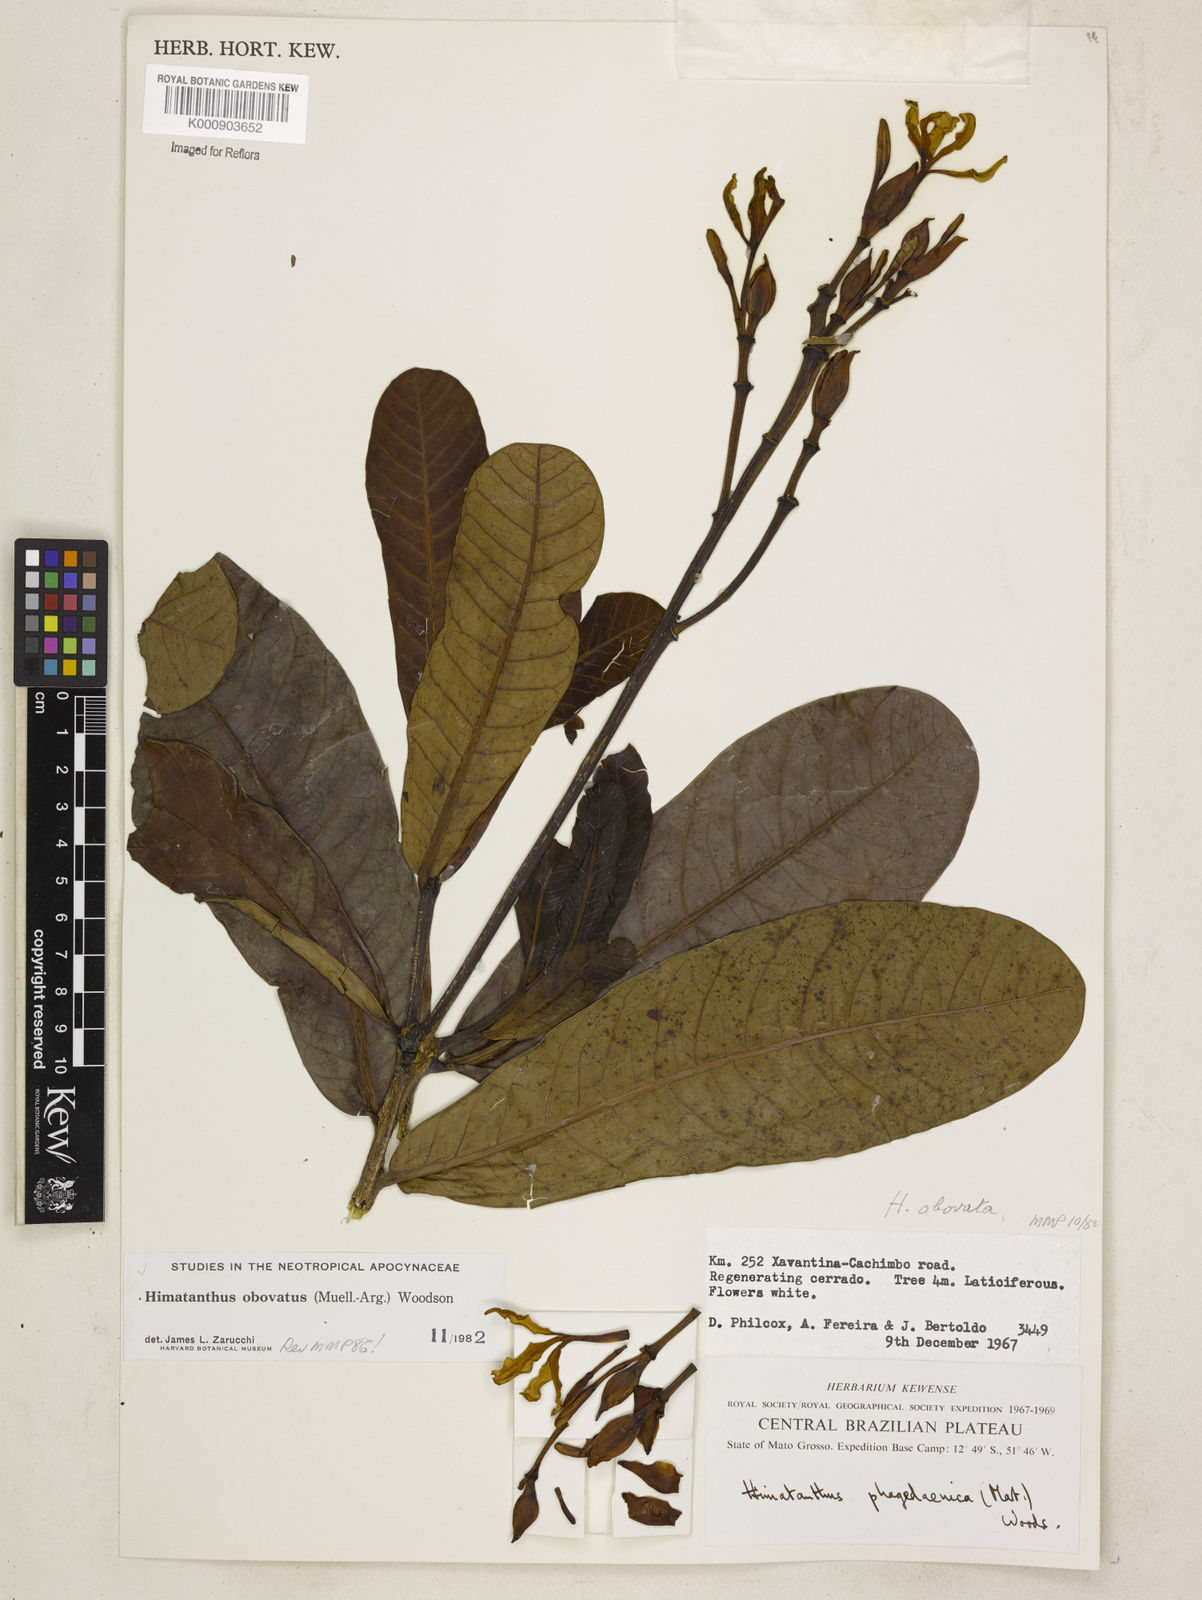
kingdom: Plantae
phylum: Tracheophyta
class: Magnoliopsida
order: Gentianales
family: Apocynaceae
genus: Himatanthus
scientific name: Himatanthus
